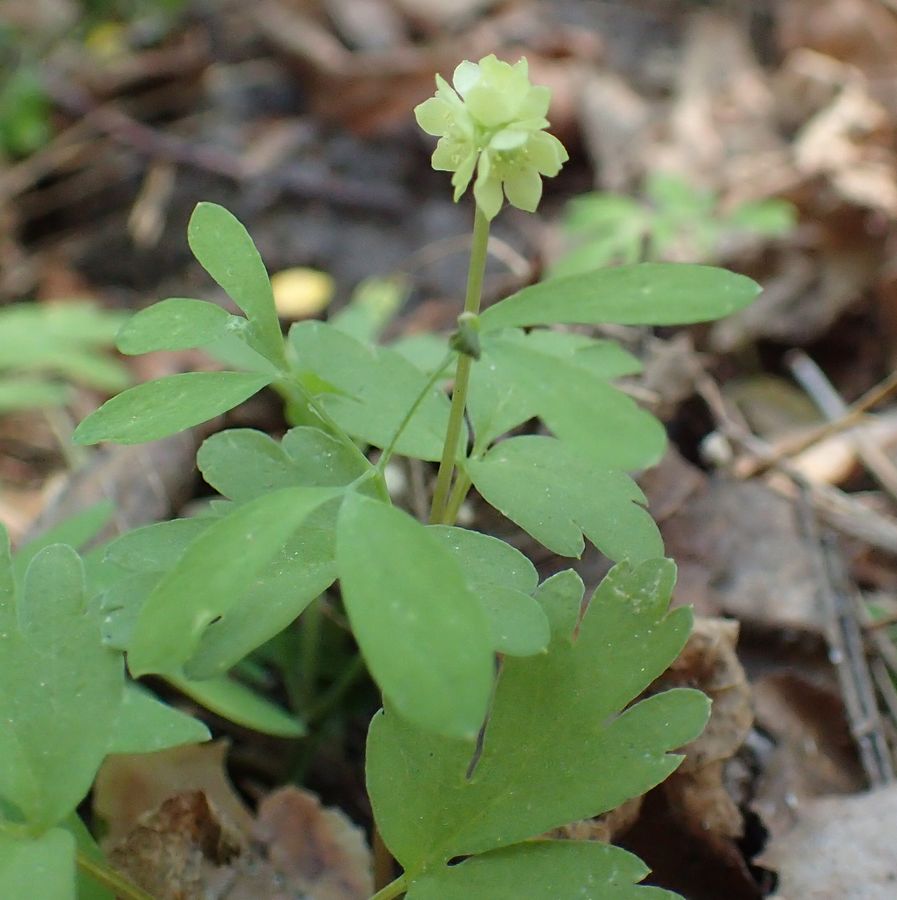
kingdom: Plantae
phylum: Tracheophyta
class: Magnoliopsida
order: Dipsacales
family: Viburnaceae
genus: Adoxa
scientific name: Adoxa moschatellina
